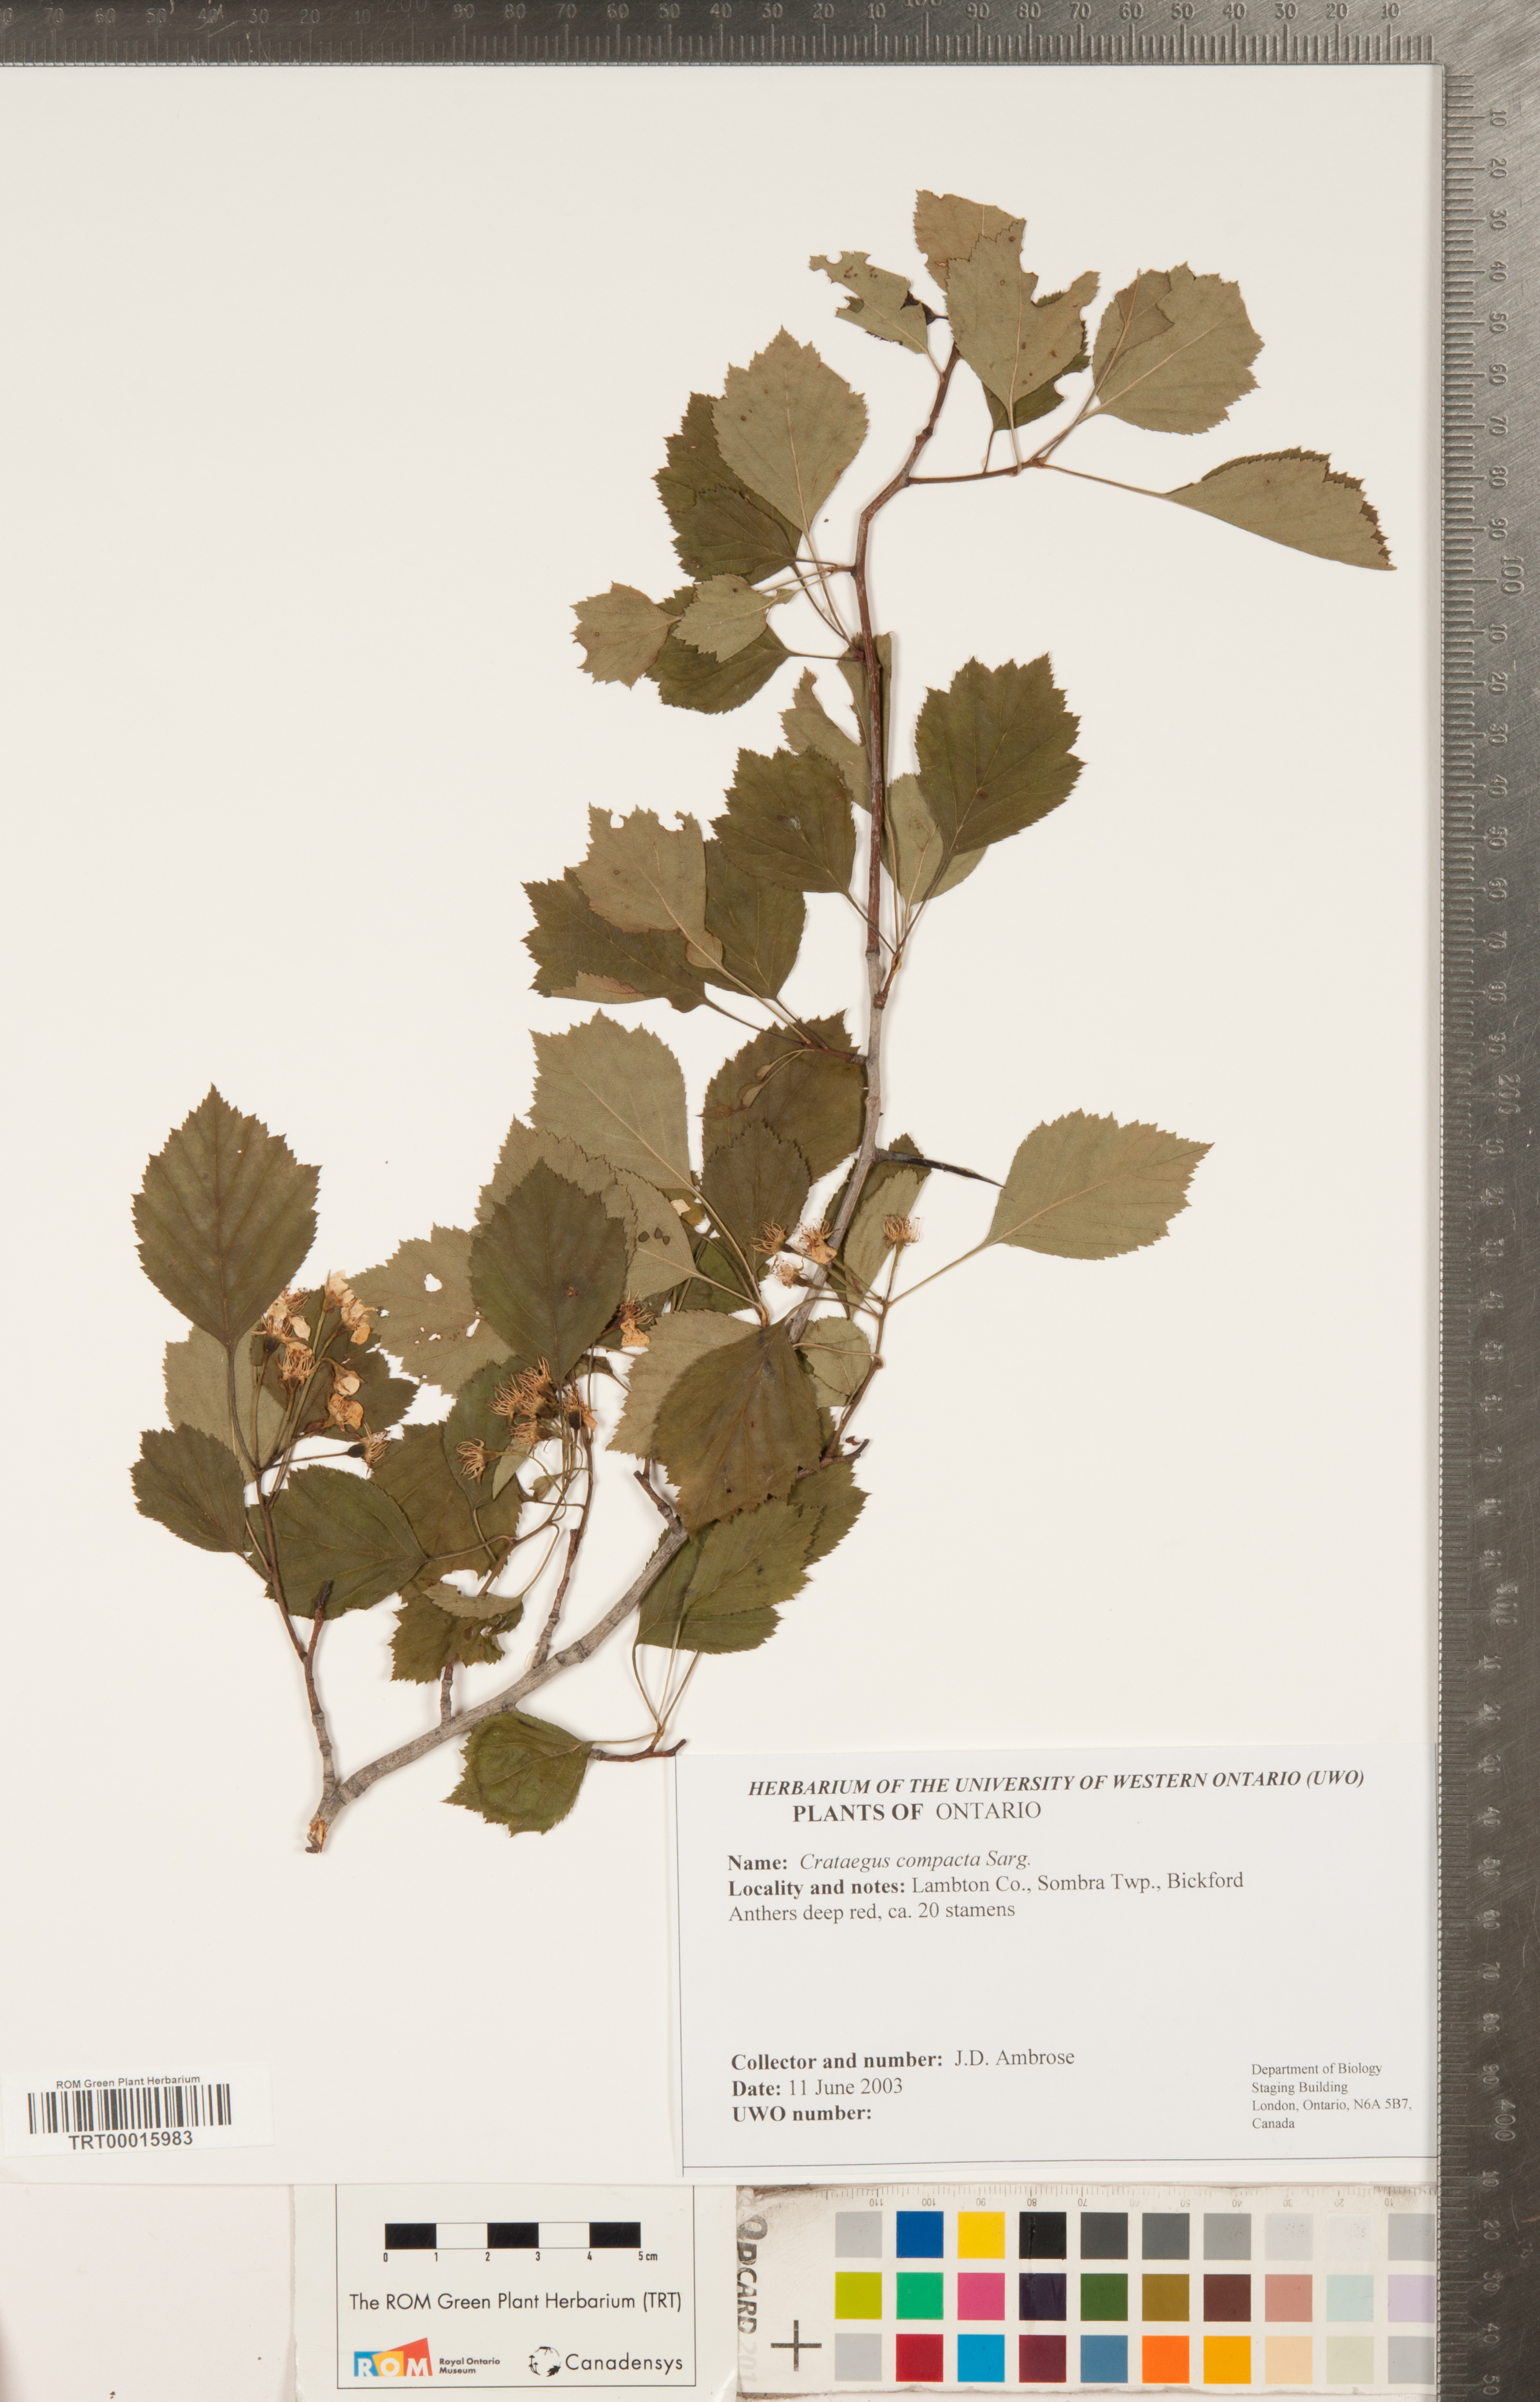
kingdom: Plantae
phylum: Tracheophyta
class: Magnoliopsida
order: Rosales
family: Rosaceae
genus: Crataegus
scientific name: Crataegus compacta
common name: Clustered hawthorn
